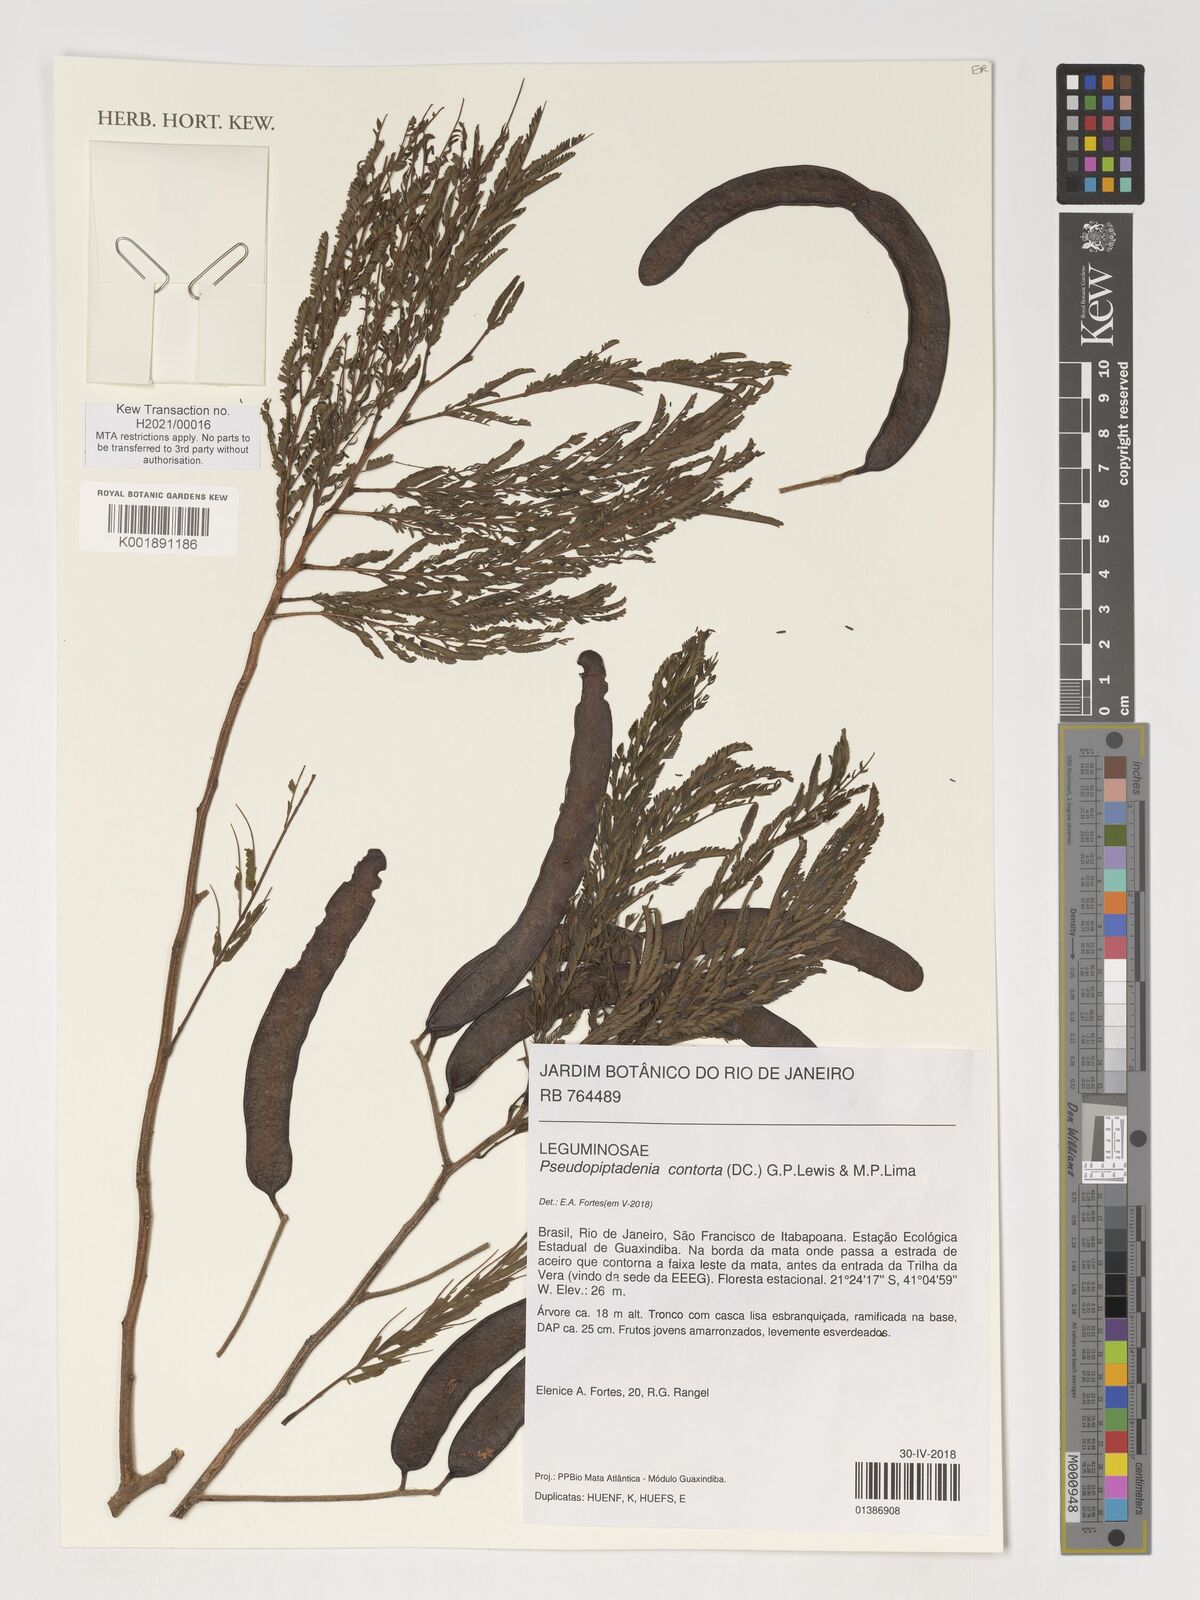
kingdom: Plantae
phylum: Tracheophyta
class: Magnoliopsida
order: Fabales
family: Fabaceae
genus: Pseudopiptadenia
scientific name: Pseudopiptadenia contorta
